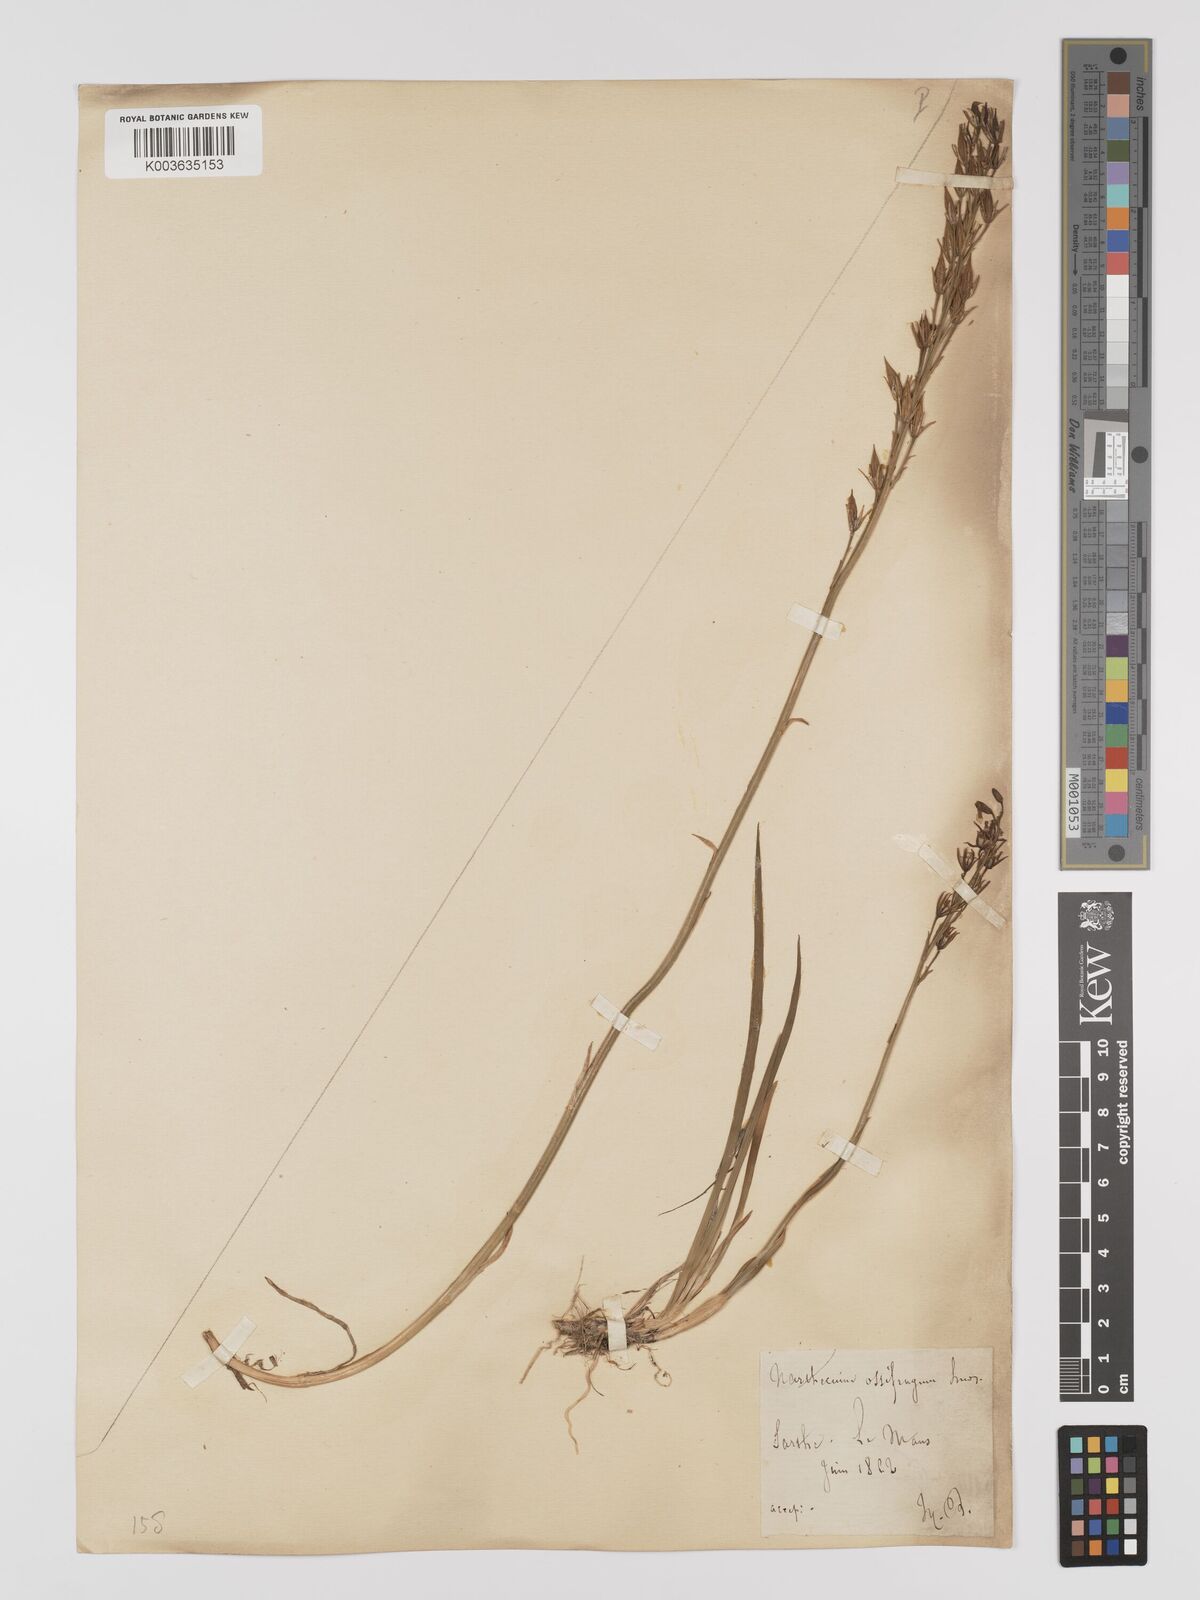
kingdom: Plantae
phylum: Tracheophyta
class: Liliopsida
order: Dioscoreales
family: Nartheciaceae
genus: Narthecium
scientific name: Narthecium ossifragum
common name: Bog asphodel
